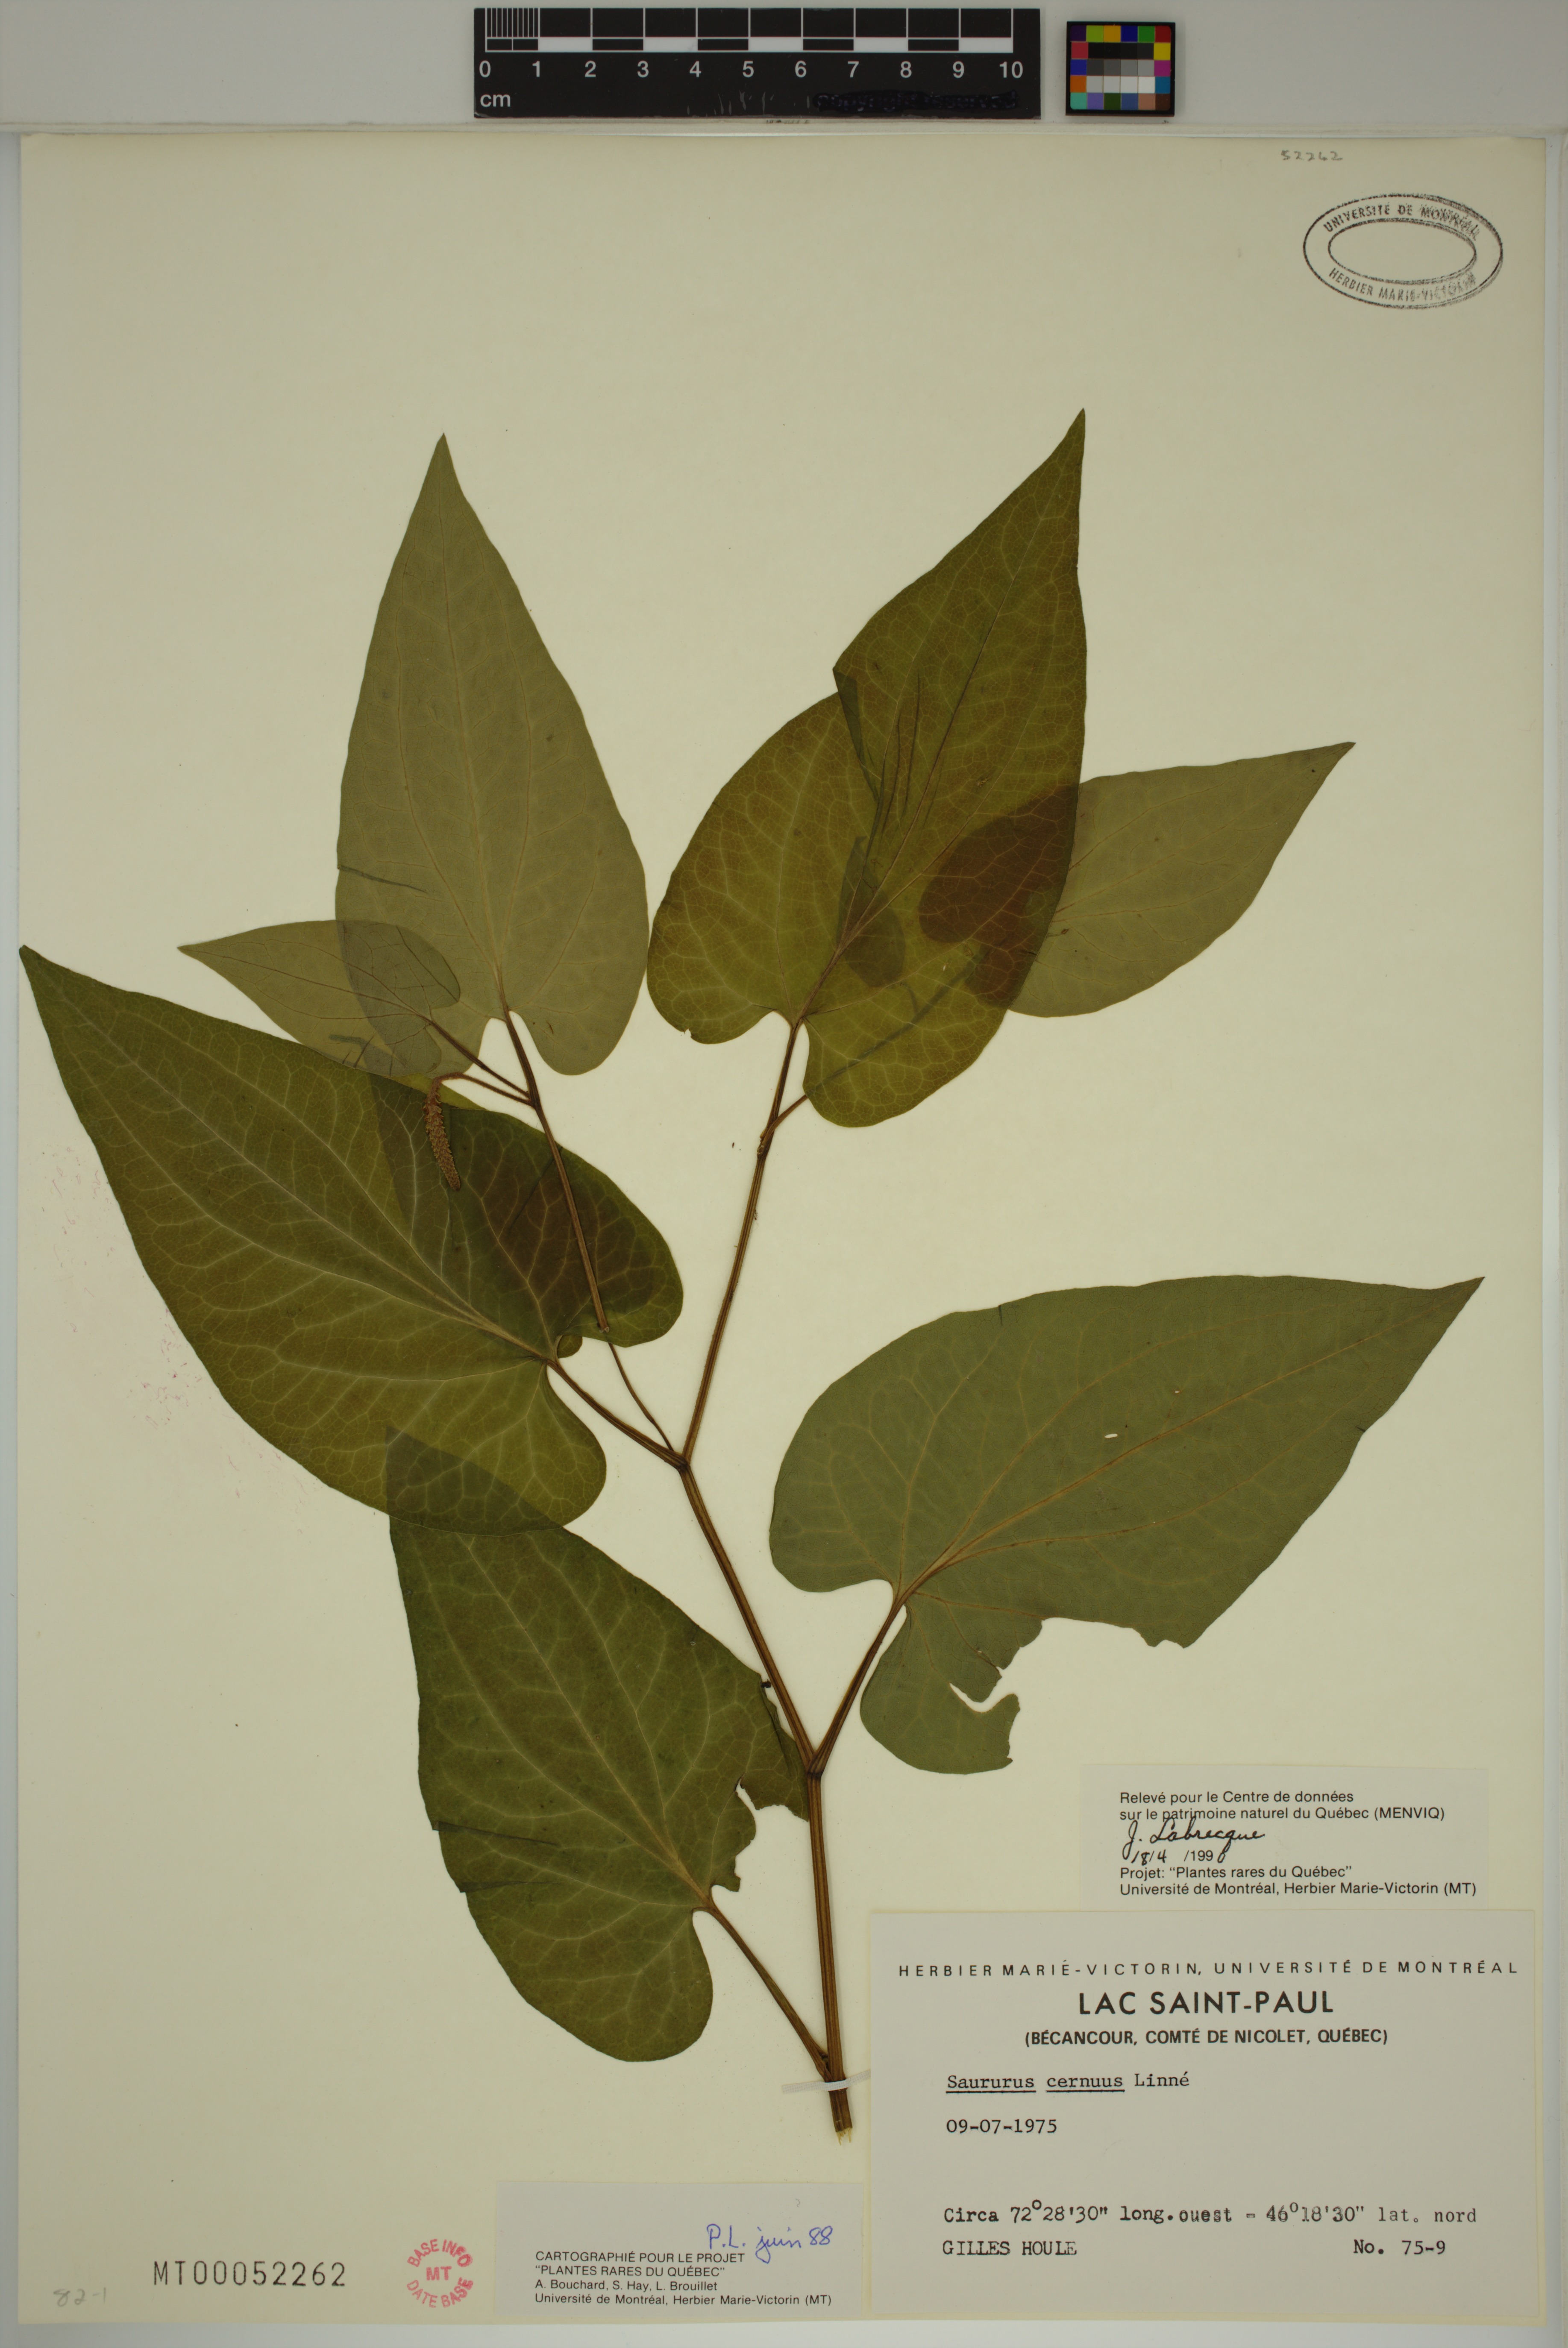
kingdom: Plantae
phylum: Tracheophyta
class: Magnoliopsida
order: Piperales
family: Saururaceae
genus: Saururus
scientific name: Saururus cernuus
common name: Lizard's-tail
